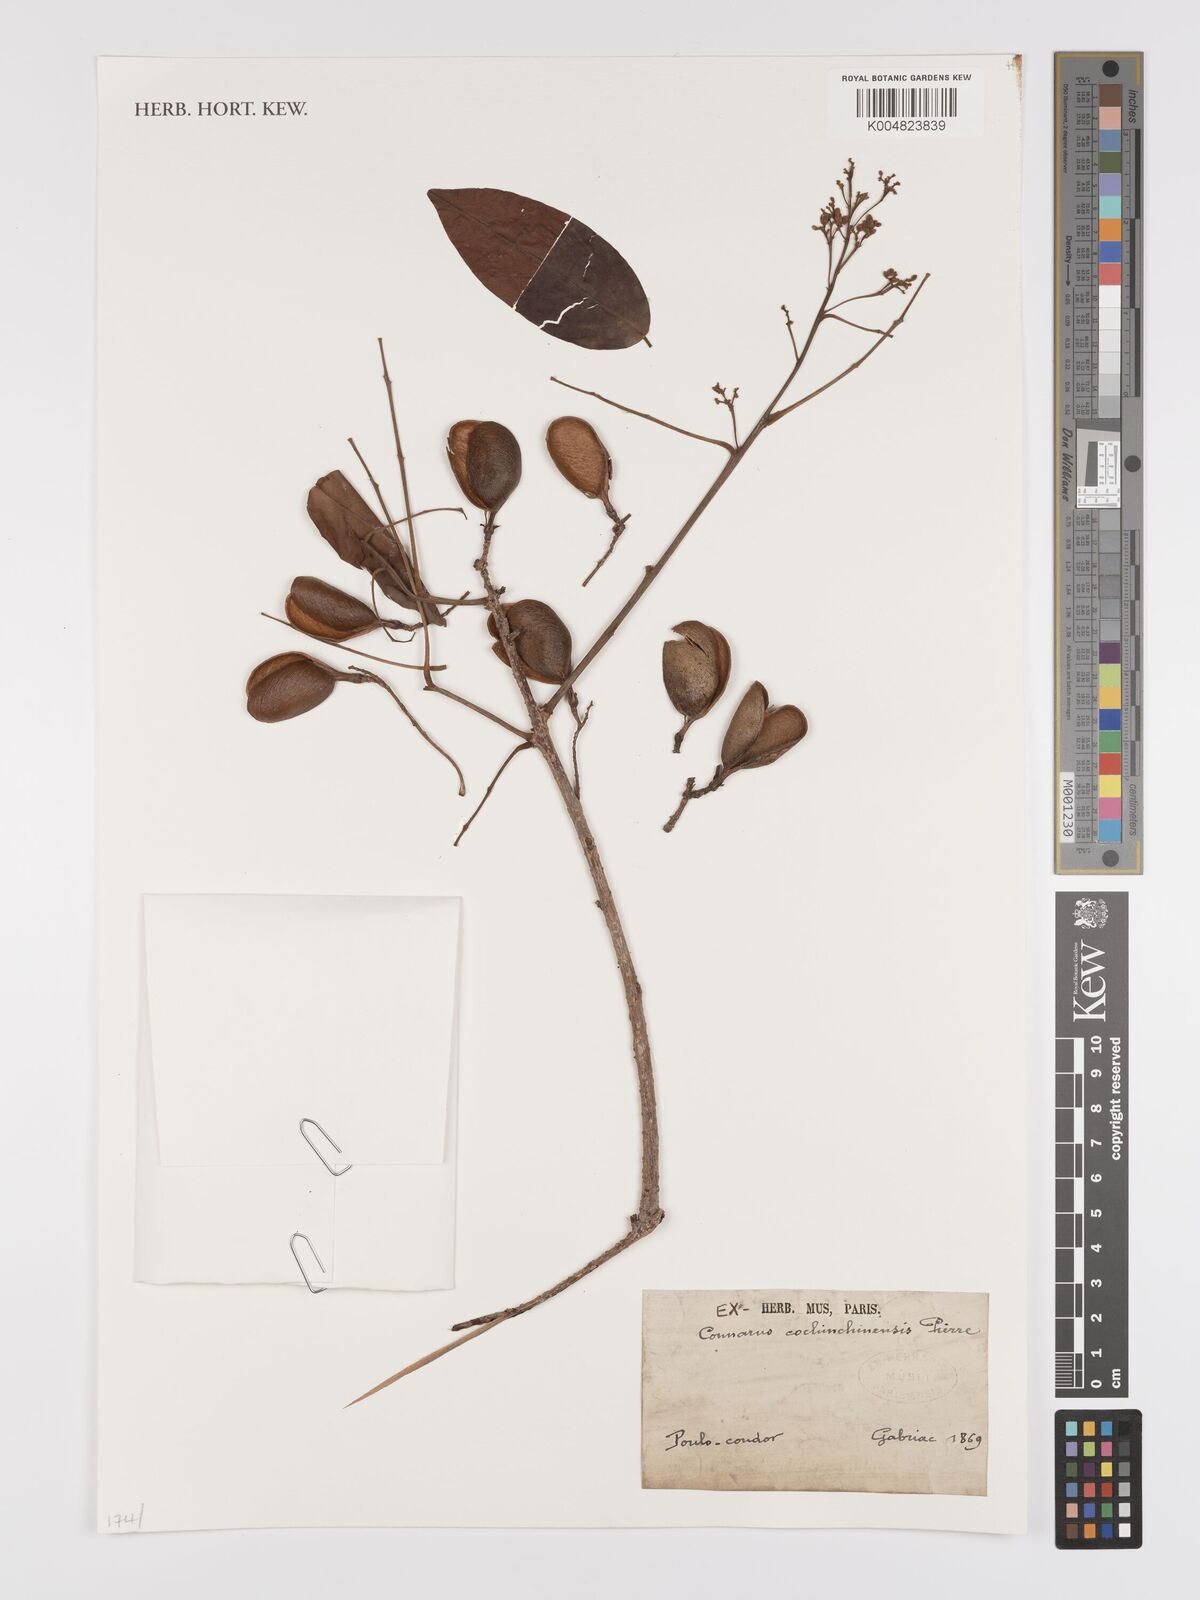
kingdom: Plantae
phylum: Tracheophyta
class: Magnoliopsida
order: Oxalidales
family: Connaraceae
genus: Connarus
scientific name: Connarus cochinchinensis
